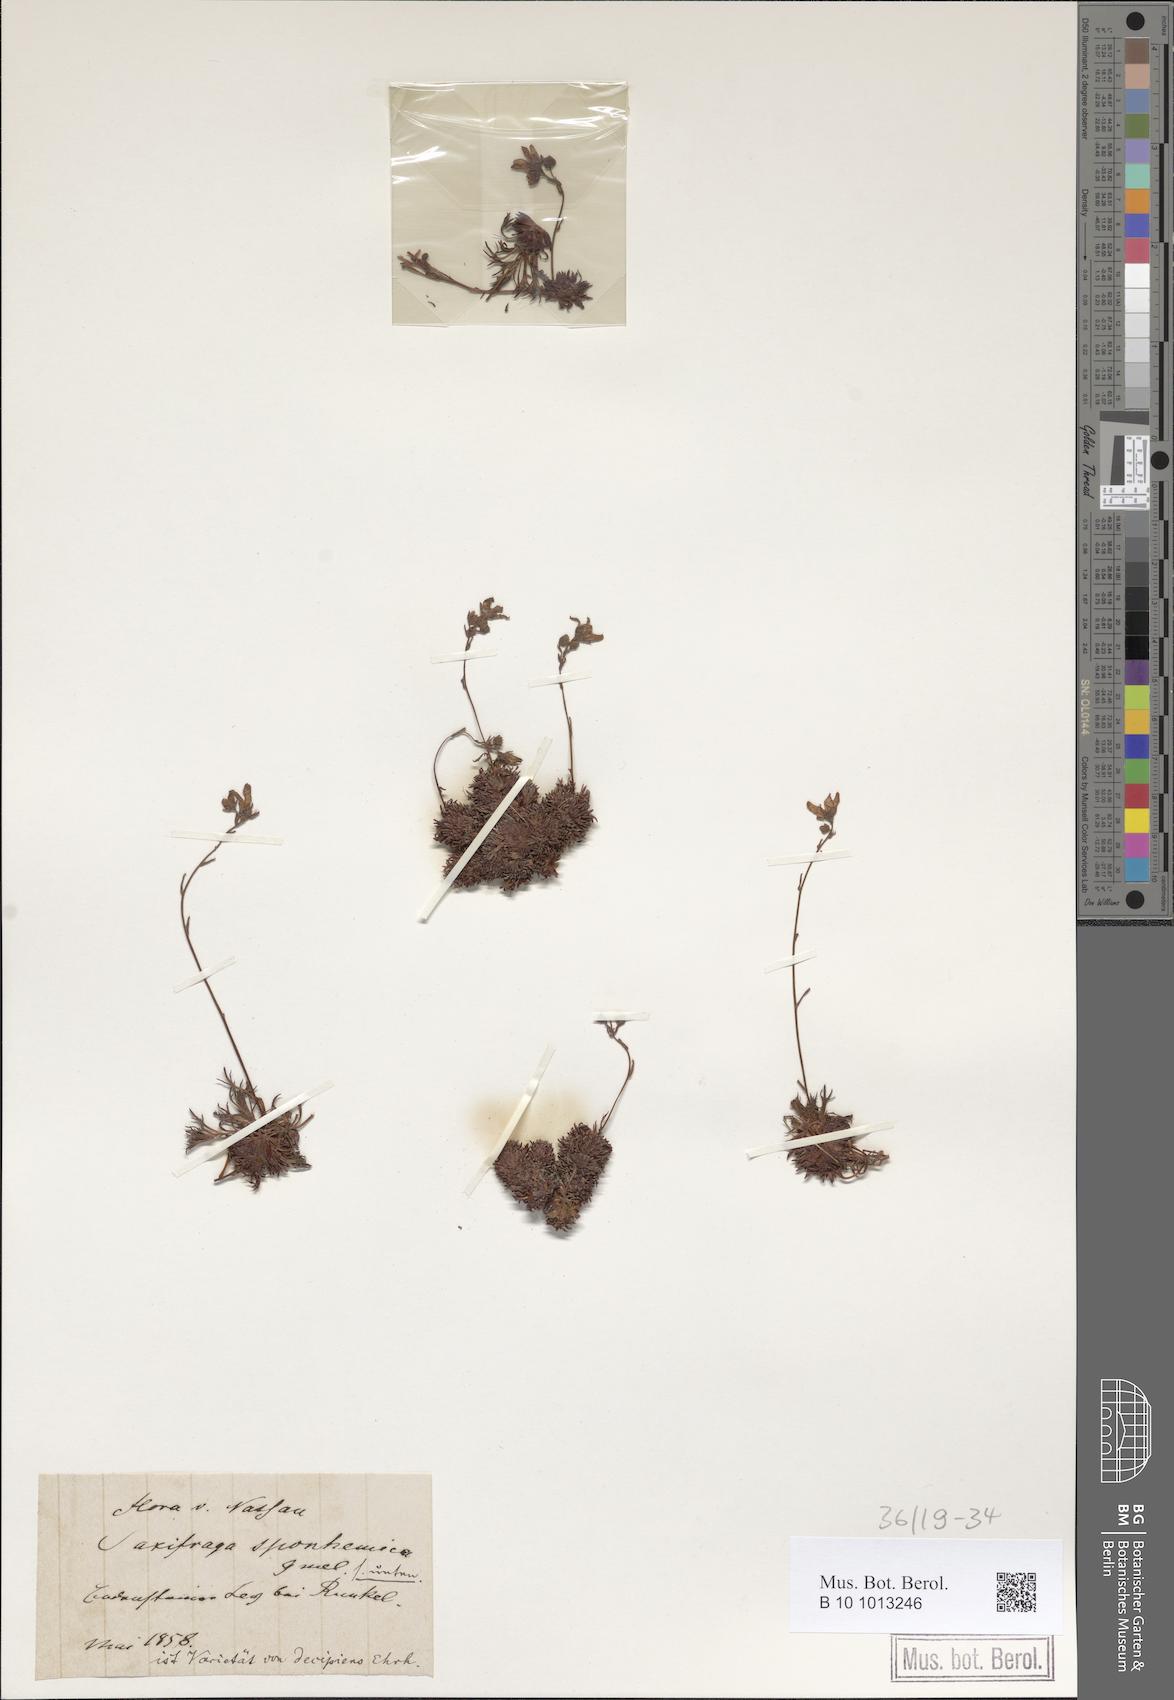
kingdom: Plantae
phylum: Tracheophyta
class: Magnoliopsida
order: Saxifragales
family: Saxifragaceae
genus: Saxifraga
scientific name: Saxifraga rosacea
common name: Irish saxifrage
